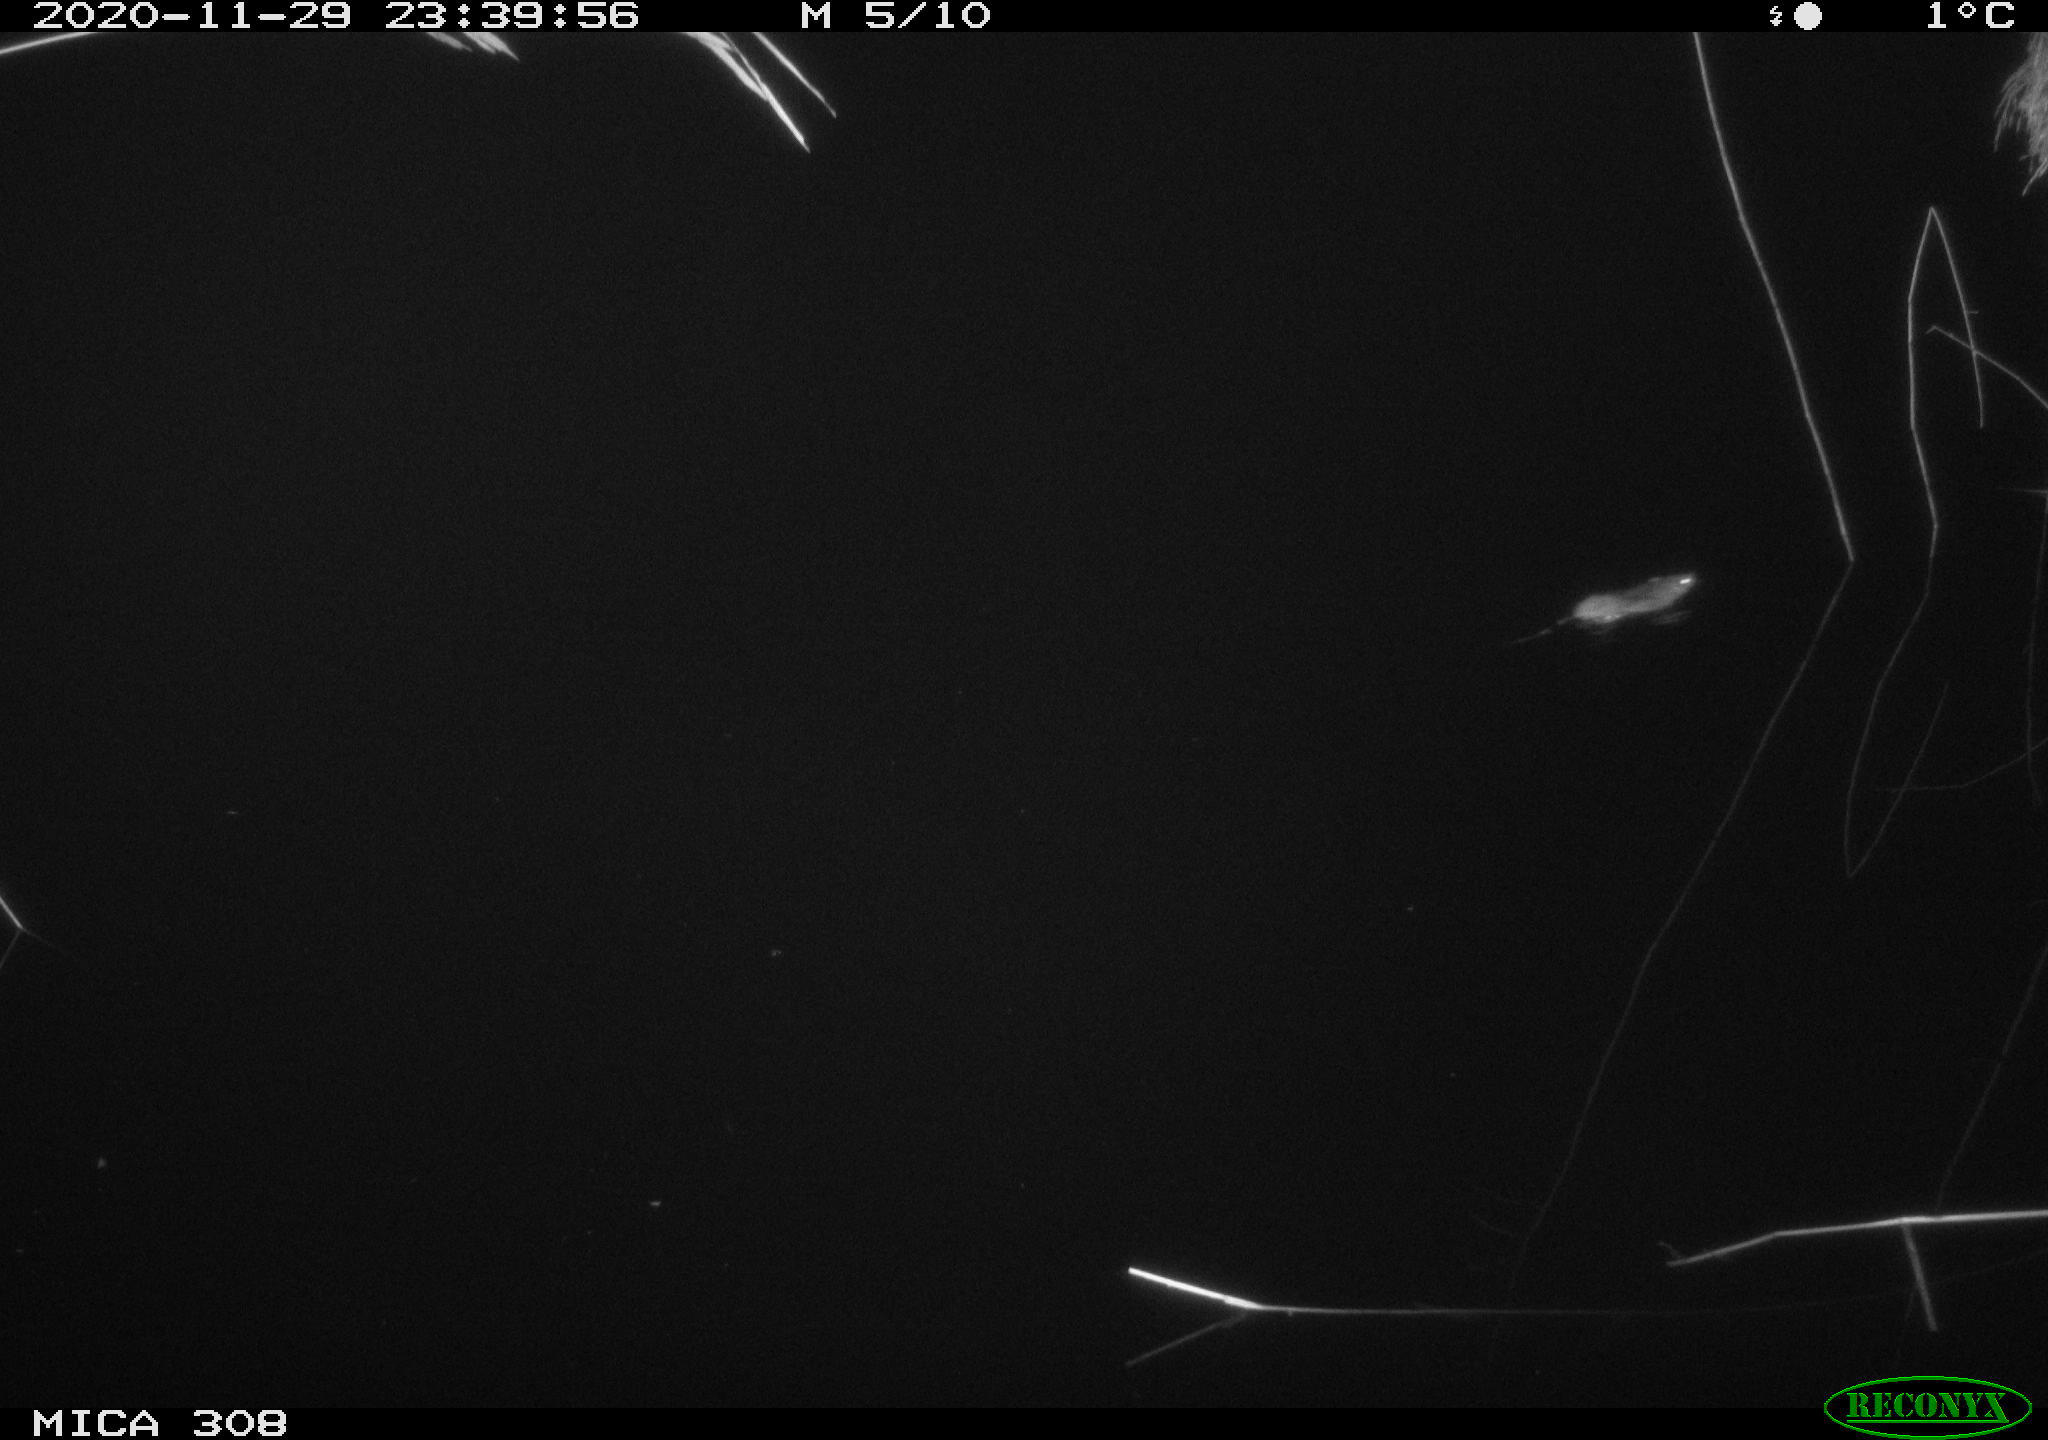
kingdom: Animalia
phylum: Chordata
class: Mammalia
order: Rodentia
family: Muridae
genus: Rattus
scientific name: Rattus norvegicus
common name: Brown rat
